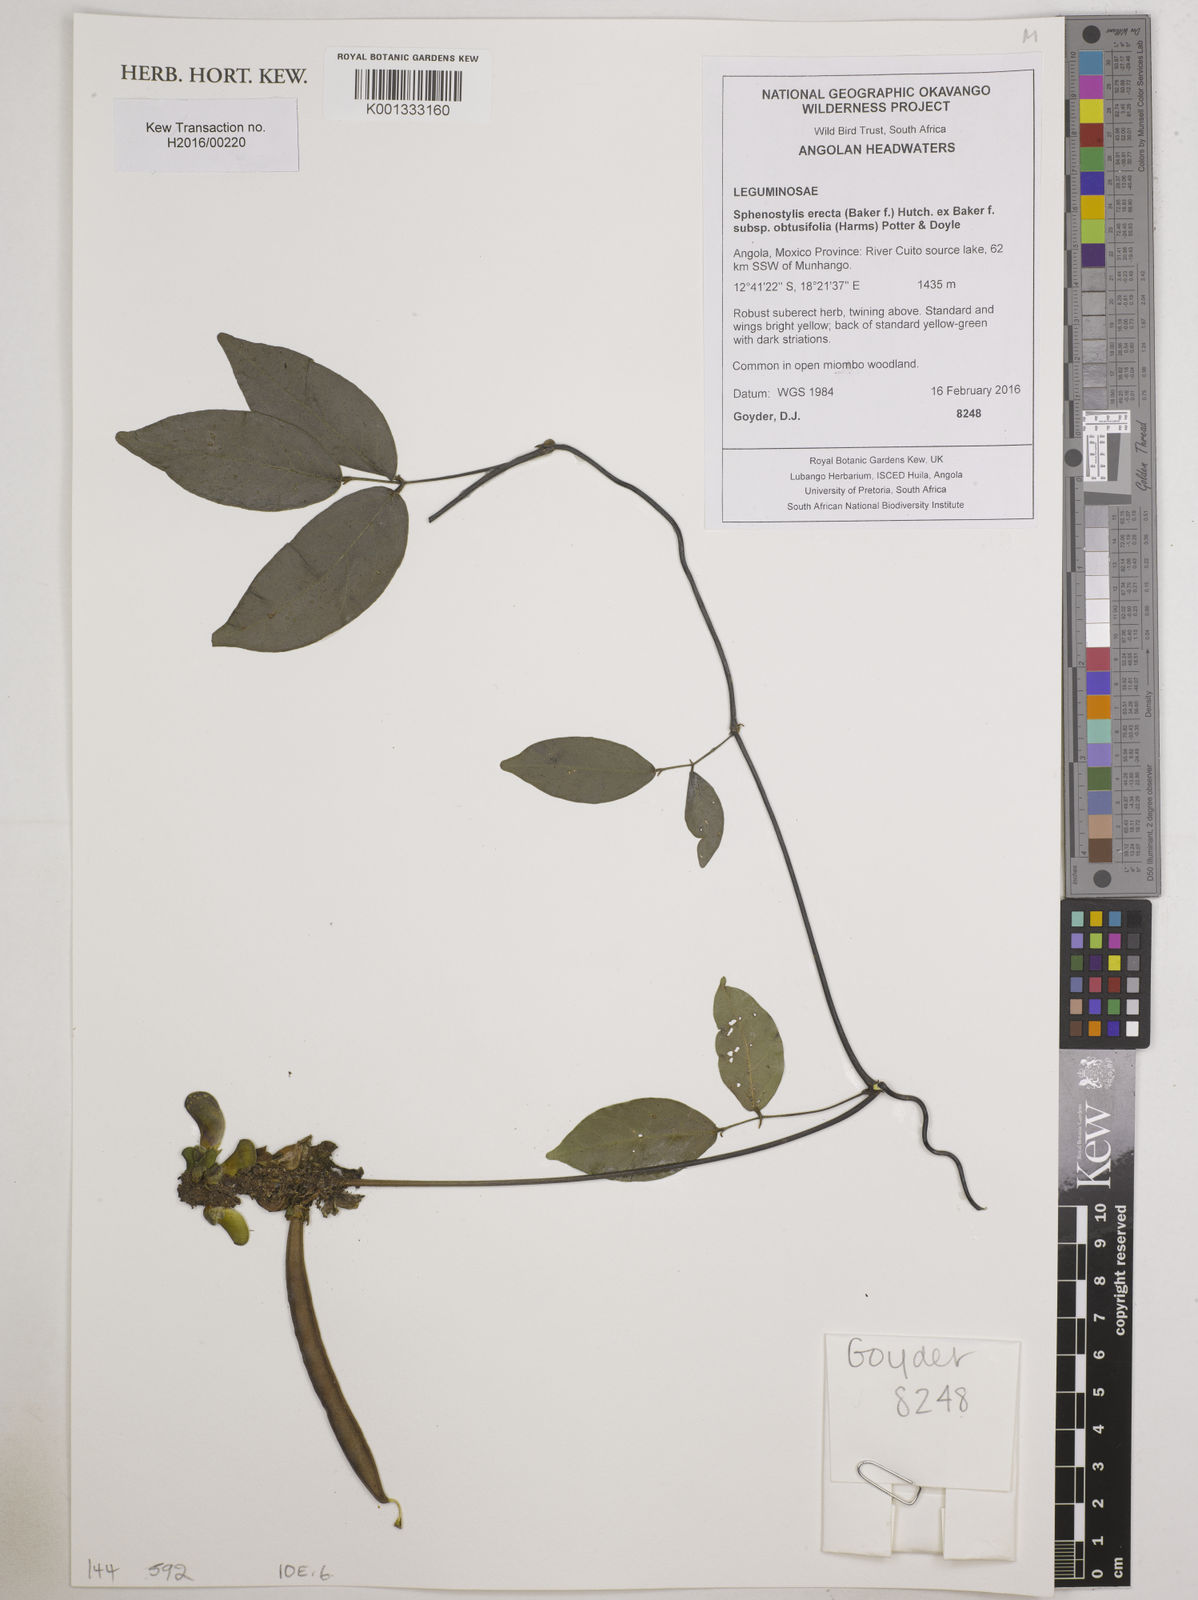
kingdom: Plantae
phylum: Tracheophyta
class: Magnoliopsida
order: Fabales
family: Fabaceae
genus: Sphenostylis
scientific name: Sphenostylis erecta
